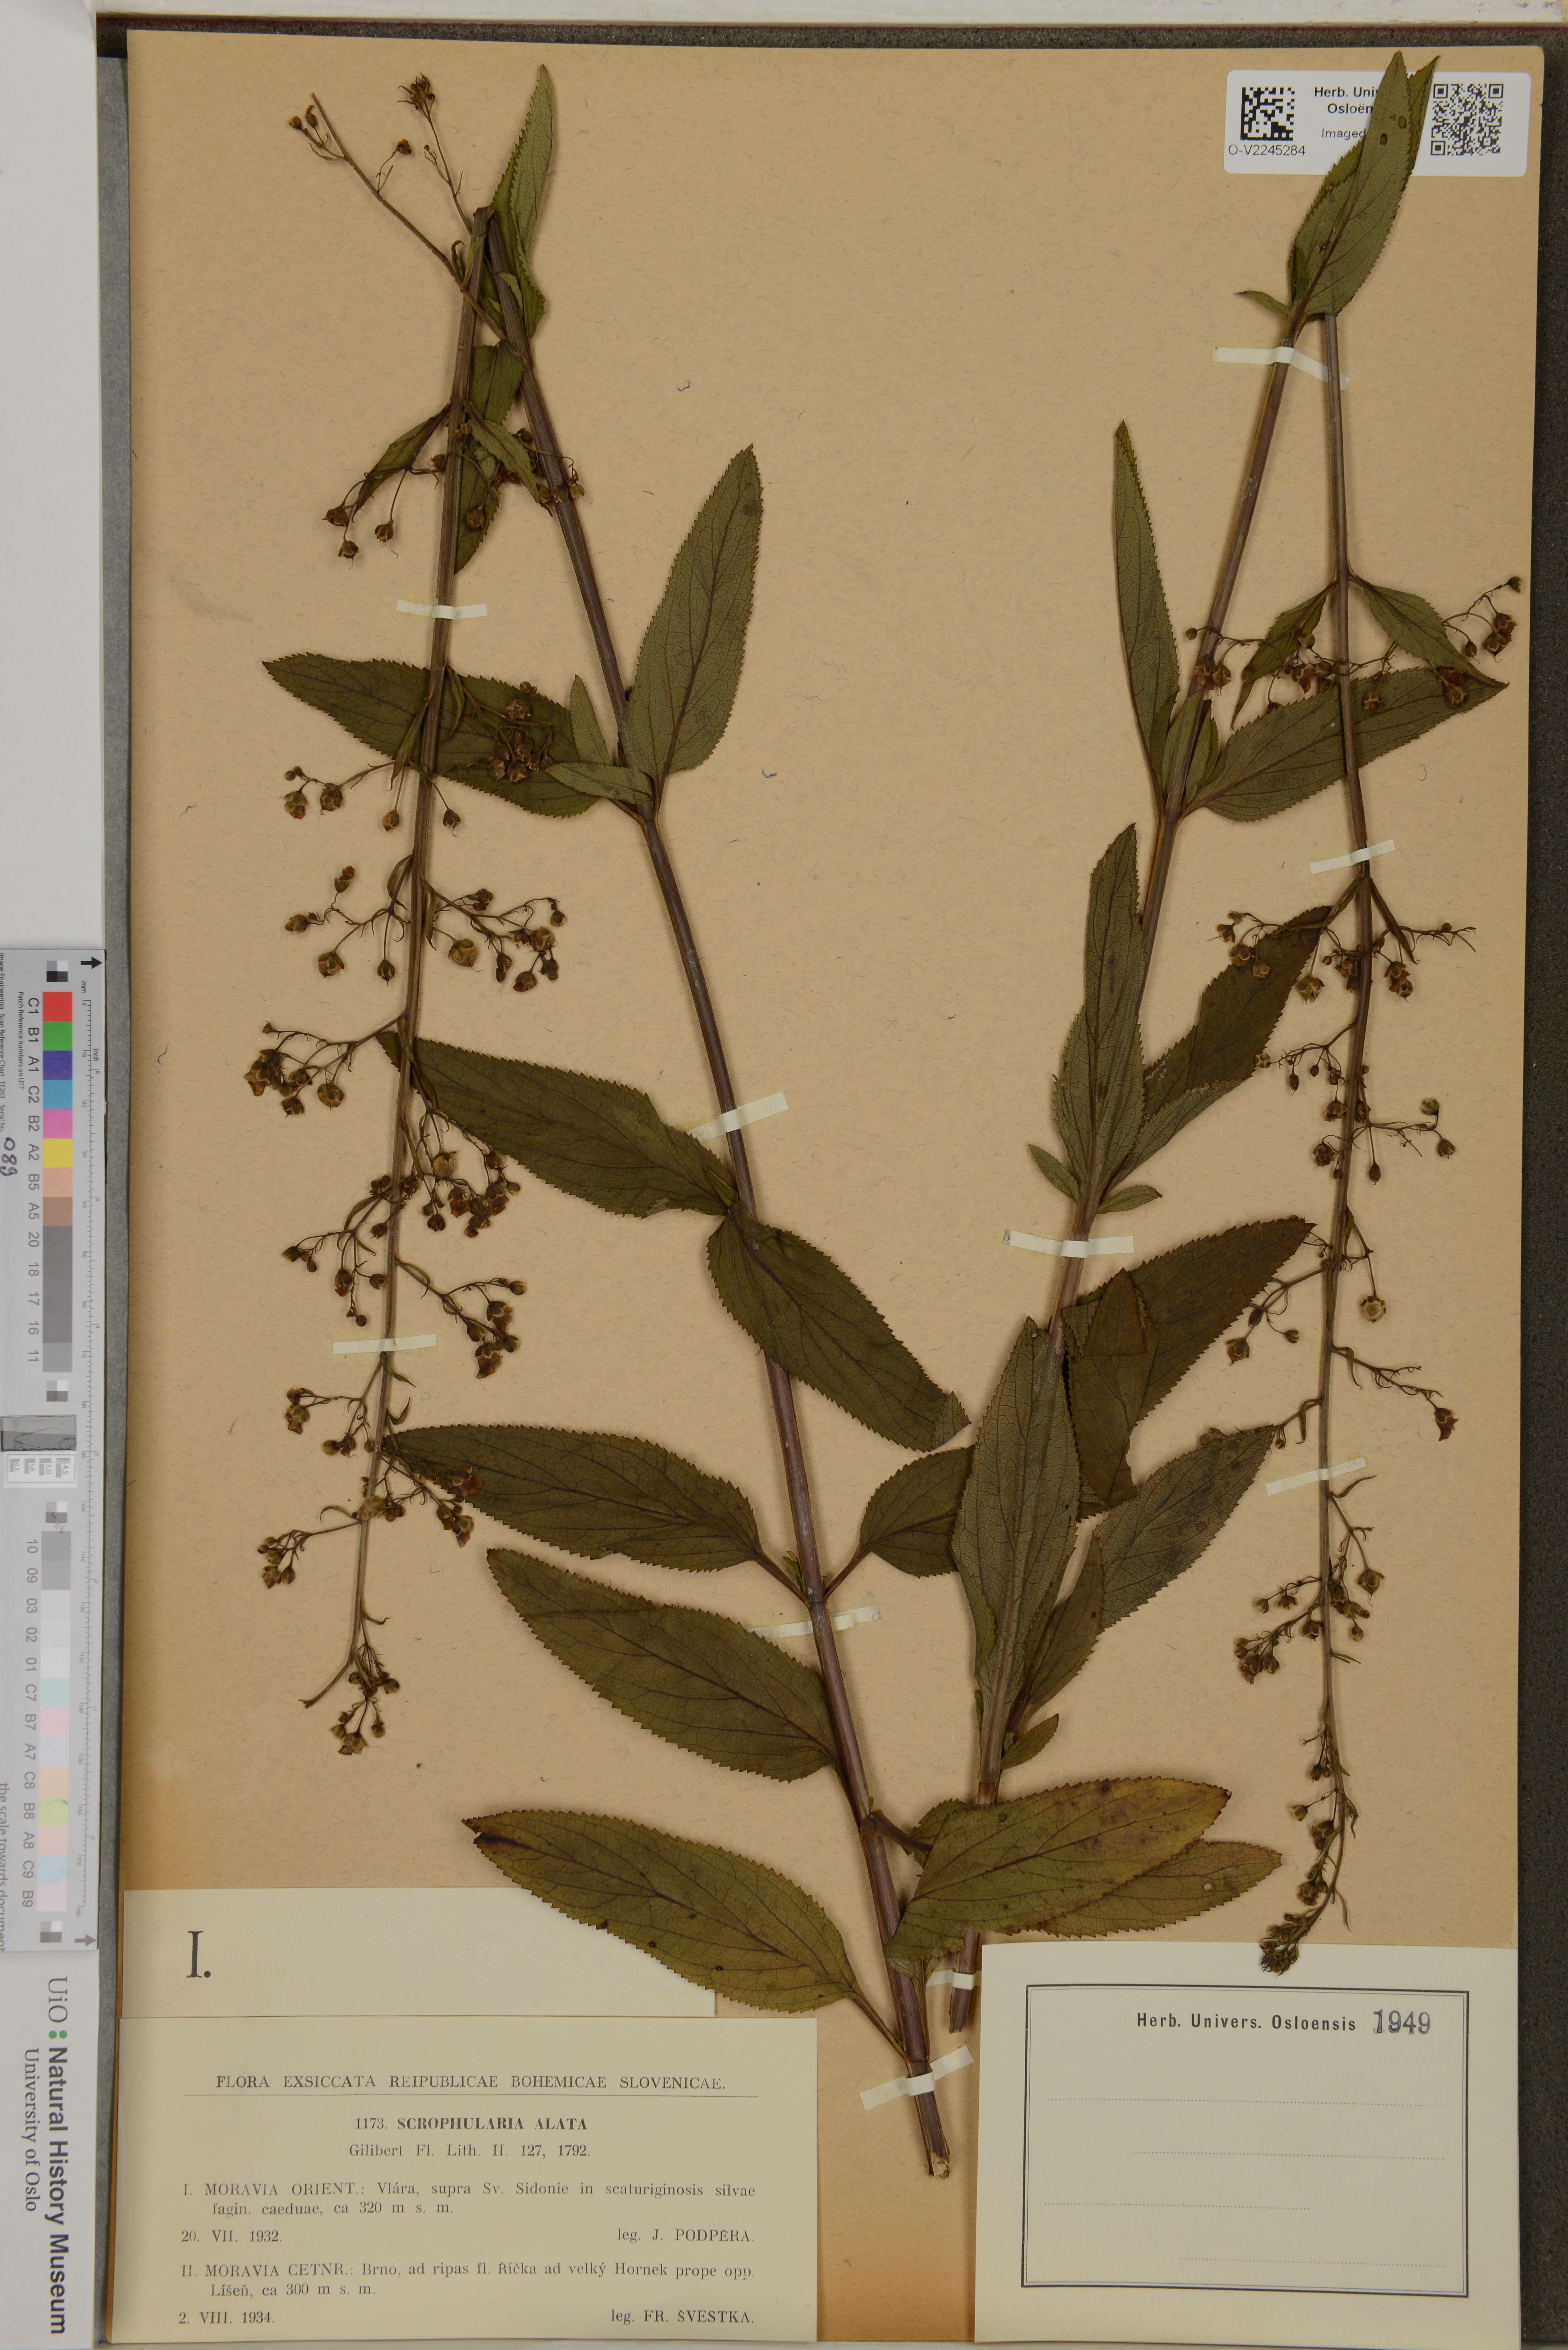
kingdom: Plantae
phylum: Tracheophyta
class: Magnoliopsida
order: Lamiales
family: Scrophulariaceae
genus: Scrophularia
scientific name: Scrophularia oblongifolia
